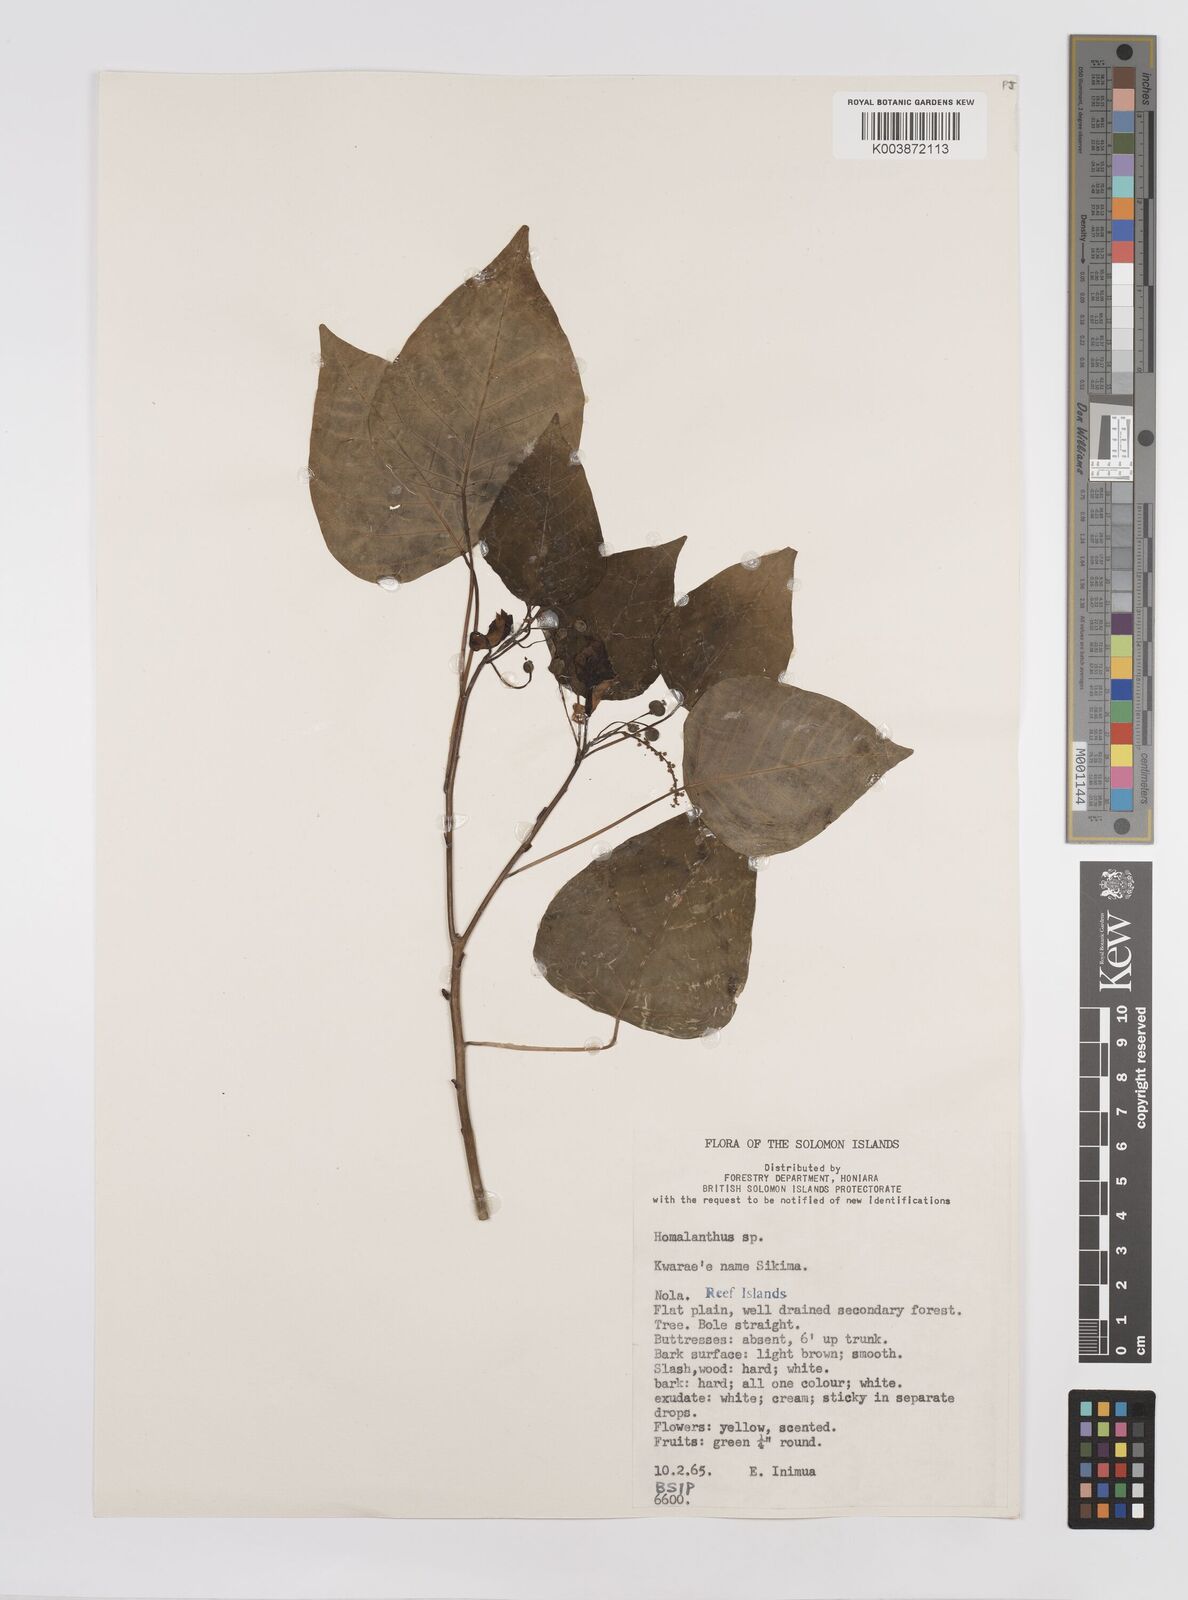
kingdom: Plantae
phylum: Tracheophyta
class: Magnoliopsida
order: Malpighiales
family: Euphorbiaceae
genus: Homalanthus
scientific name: Homalanthus populifolius
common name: Queensland poplar
